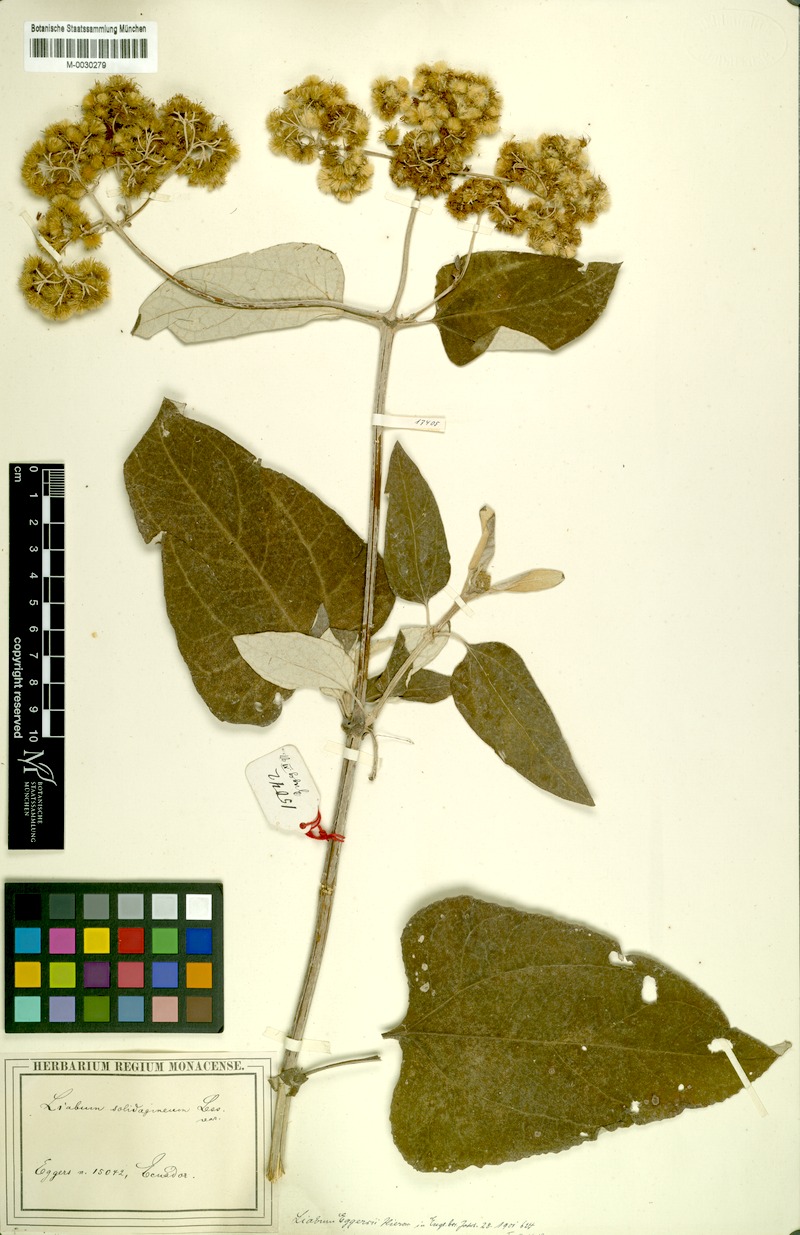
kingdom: Plantae
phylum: Tracheophyta
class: Magnoliopsida
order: Asterales
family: Asteraceae
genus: Liabum
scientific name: Liabum eggersii
